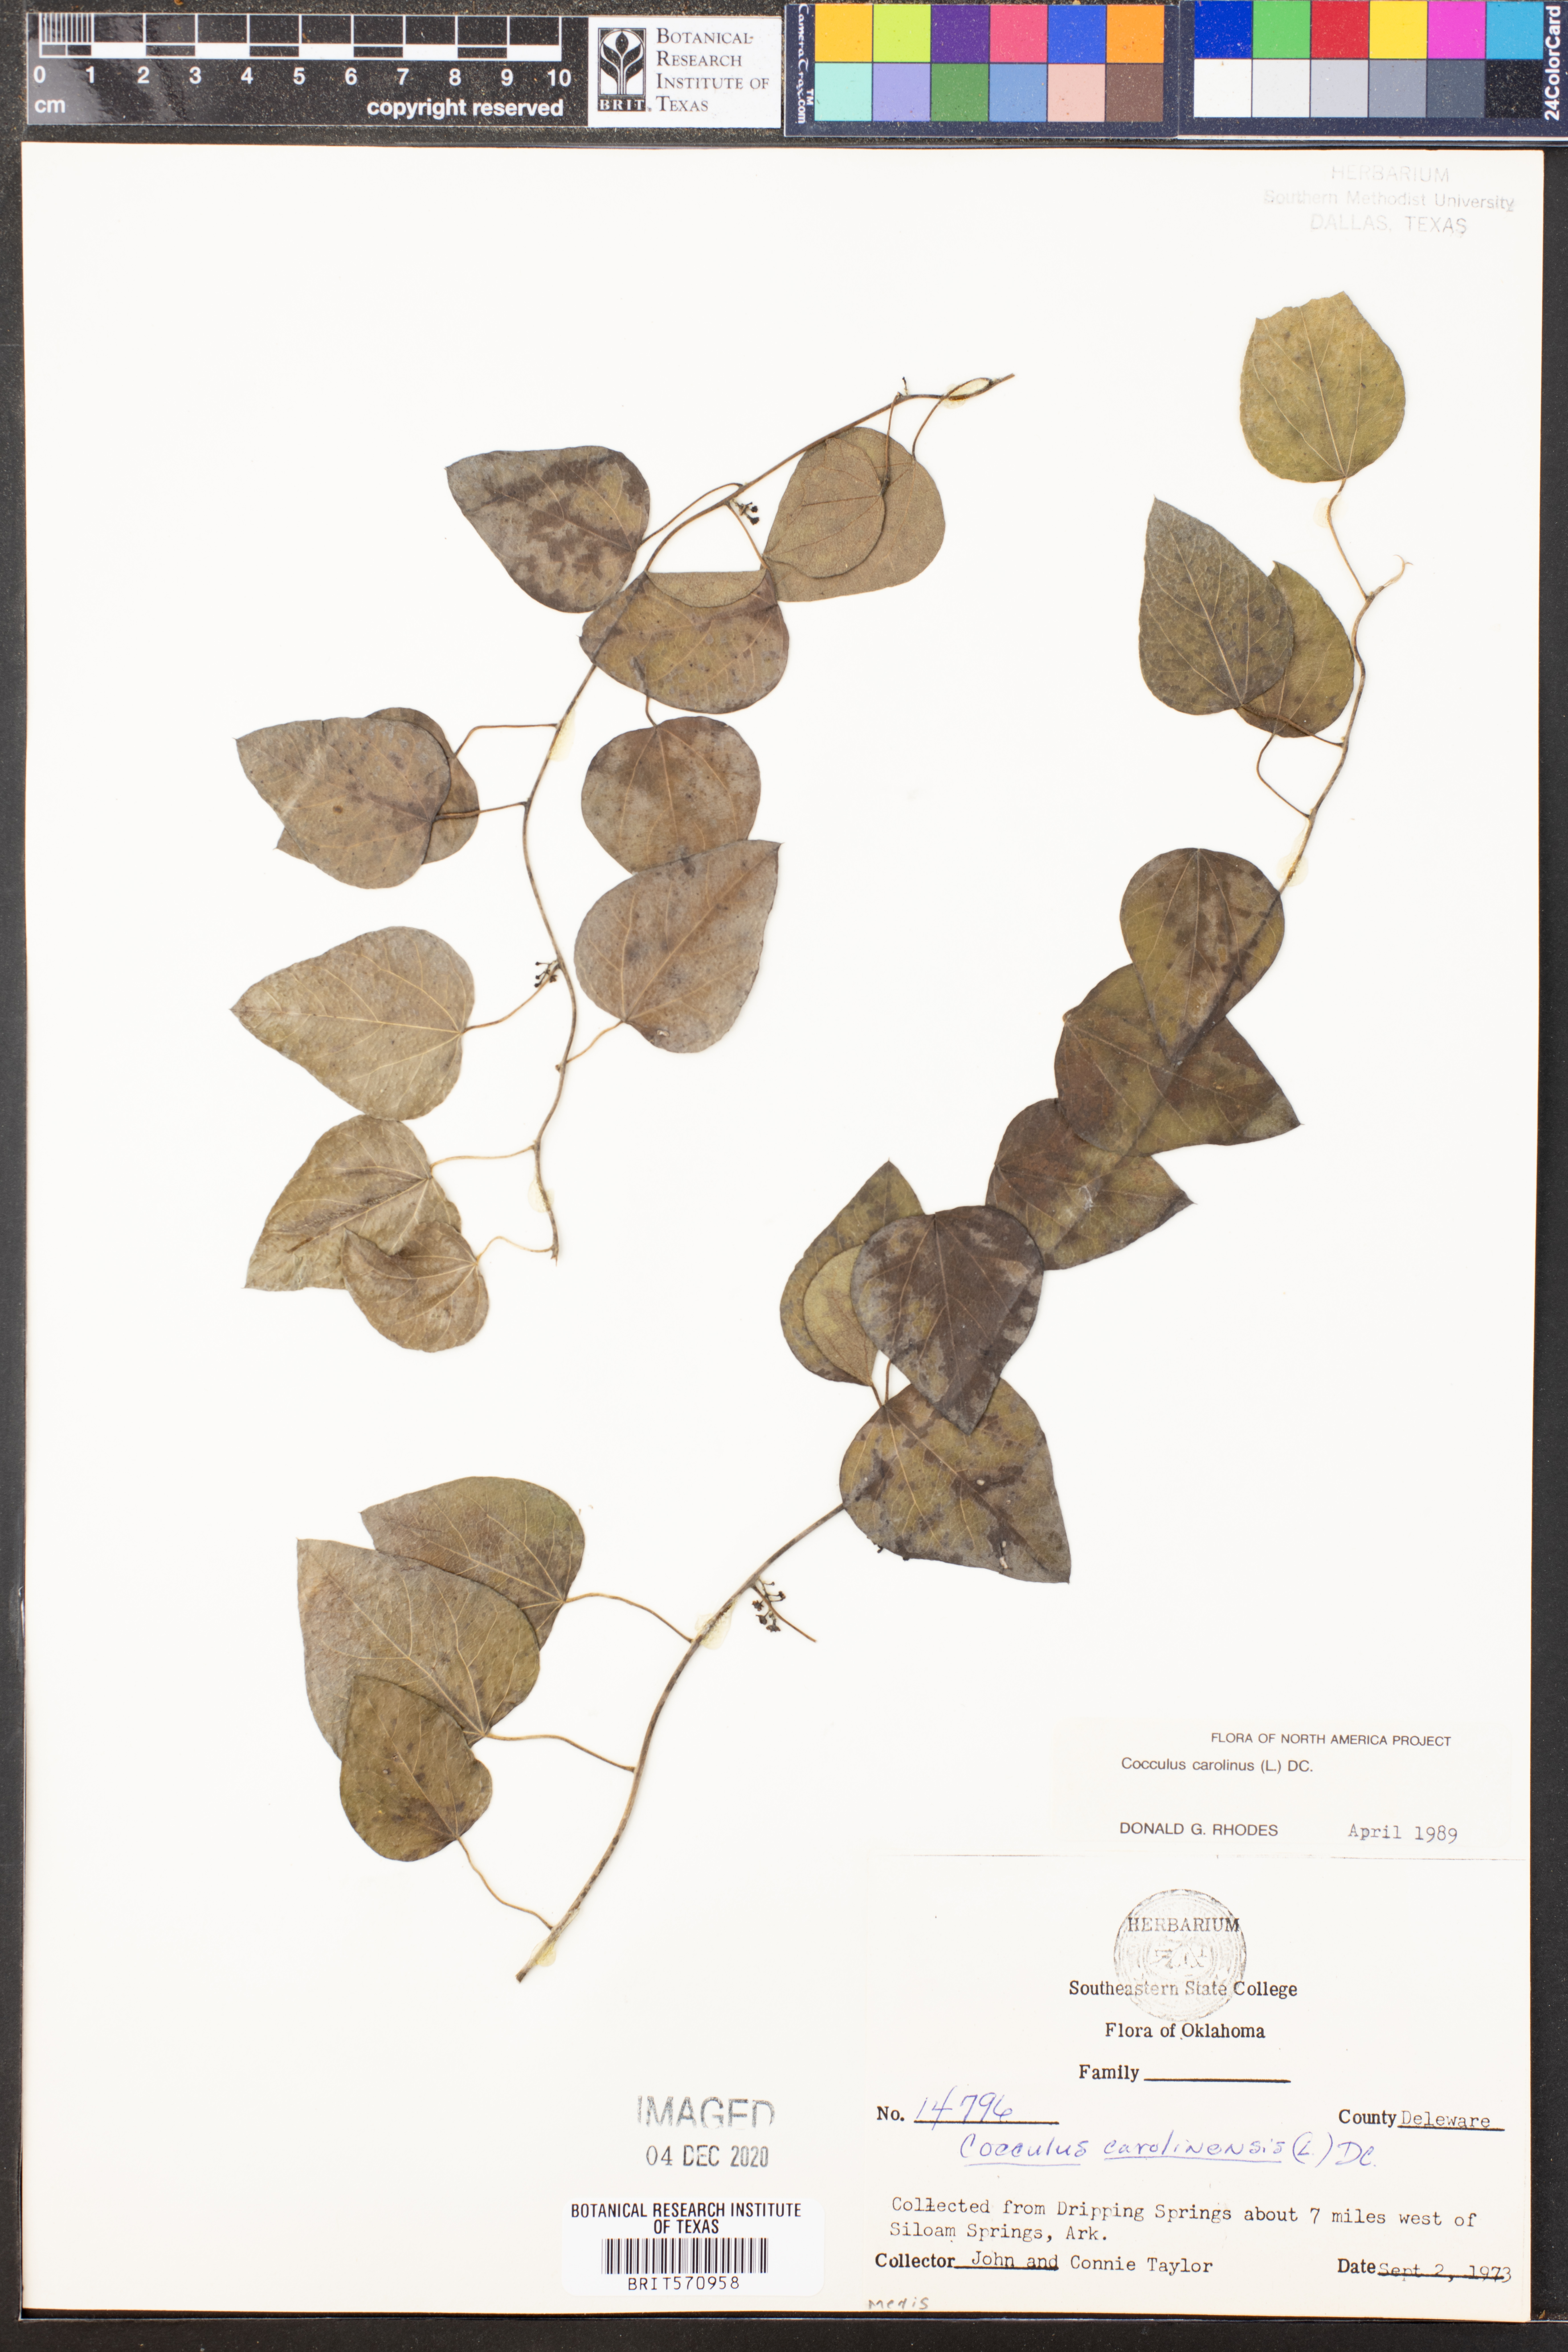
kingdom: Plantae
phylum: Tracheophyta
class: Magnoliopsida
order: Ranunculales
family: Menispermaceae
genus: Cocculus
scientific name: Cocculus carolinus
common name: Carolina moonseed
